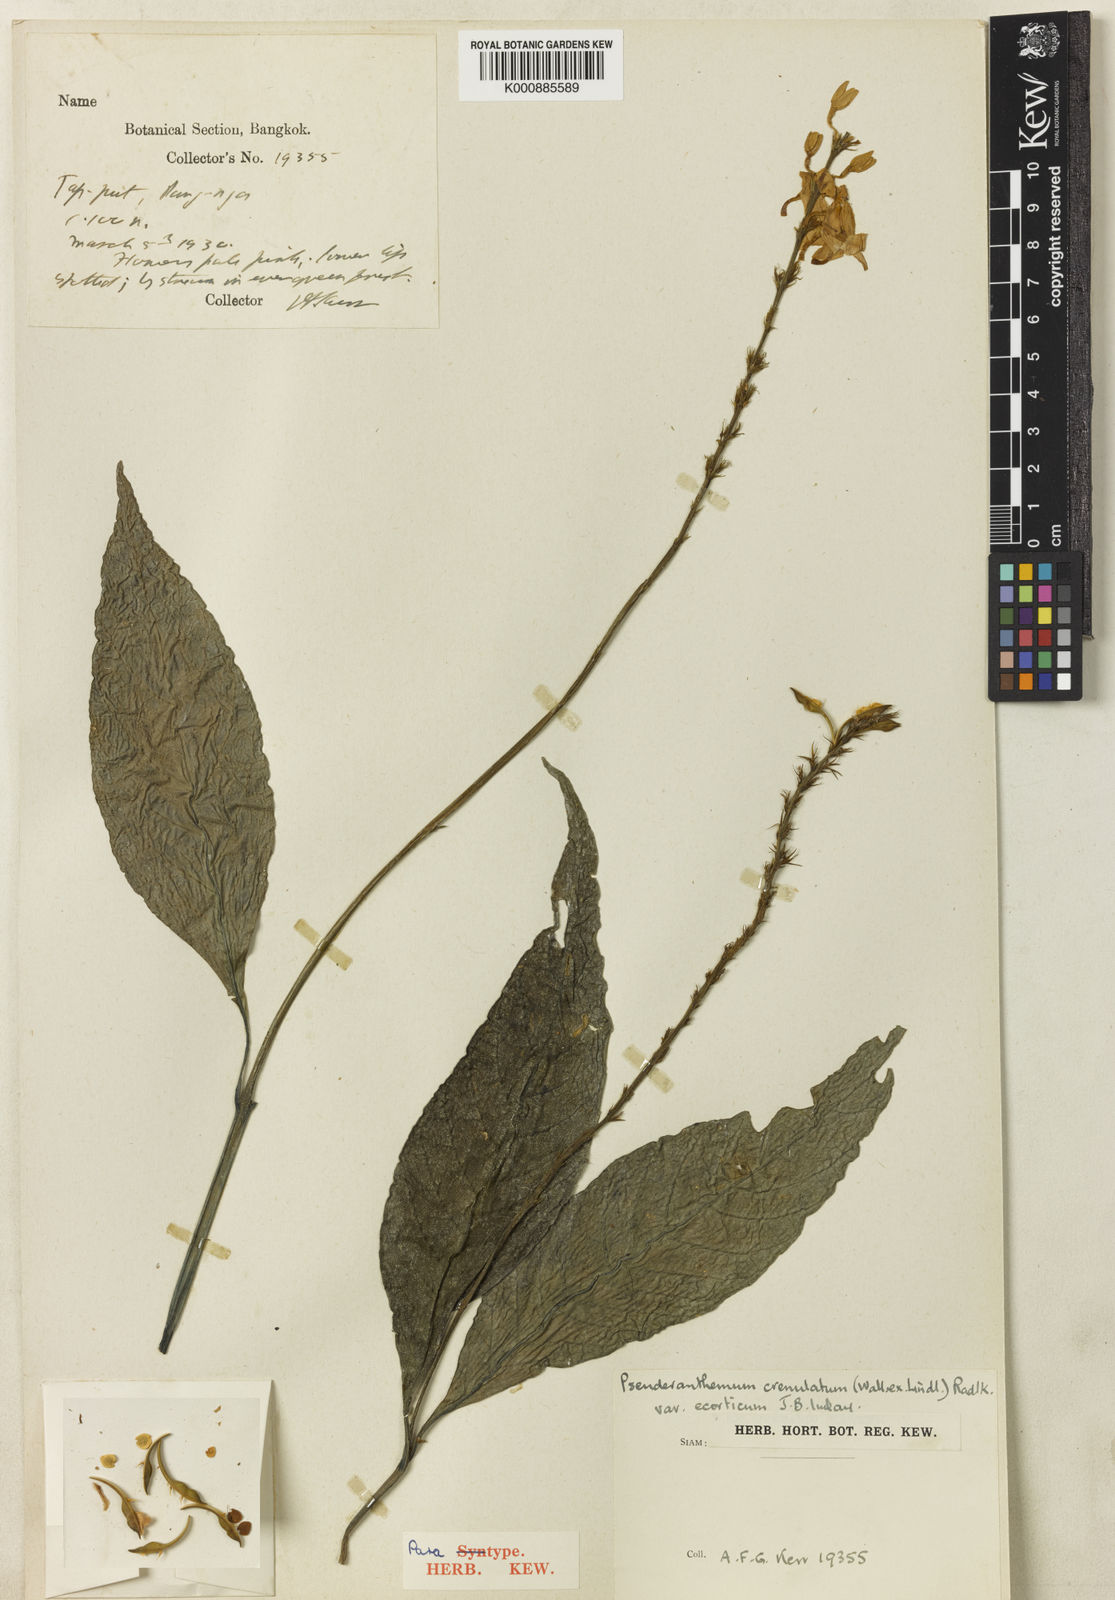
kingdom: Plantae
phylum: Tracheophyta
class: Magnoliopsida
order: Lamiales
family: Acanthaceae
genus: Pseuderanthemum
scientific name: Pseuderanthemum
